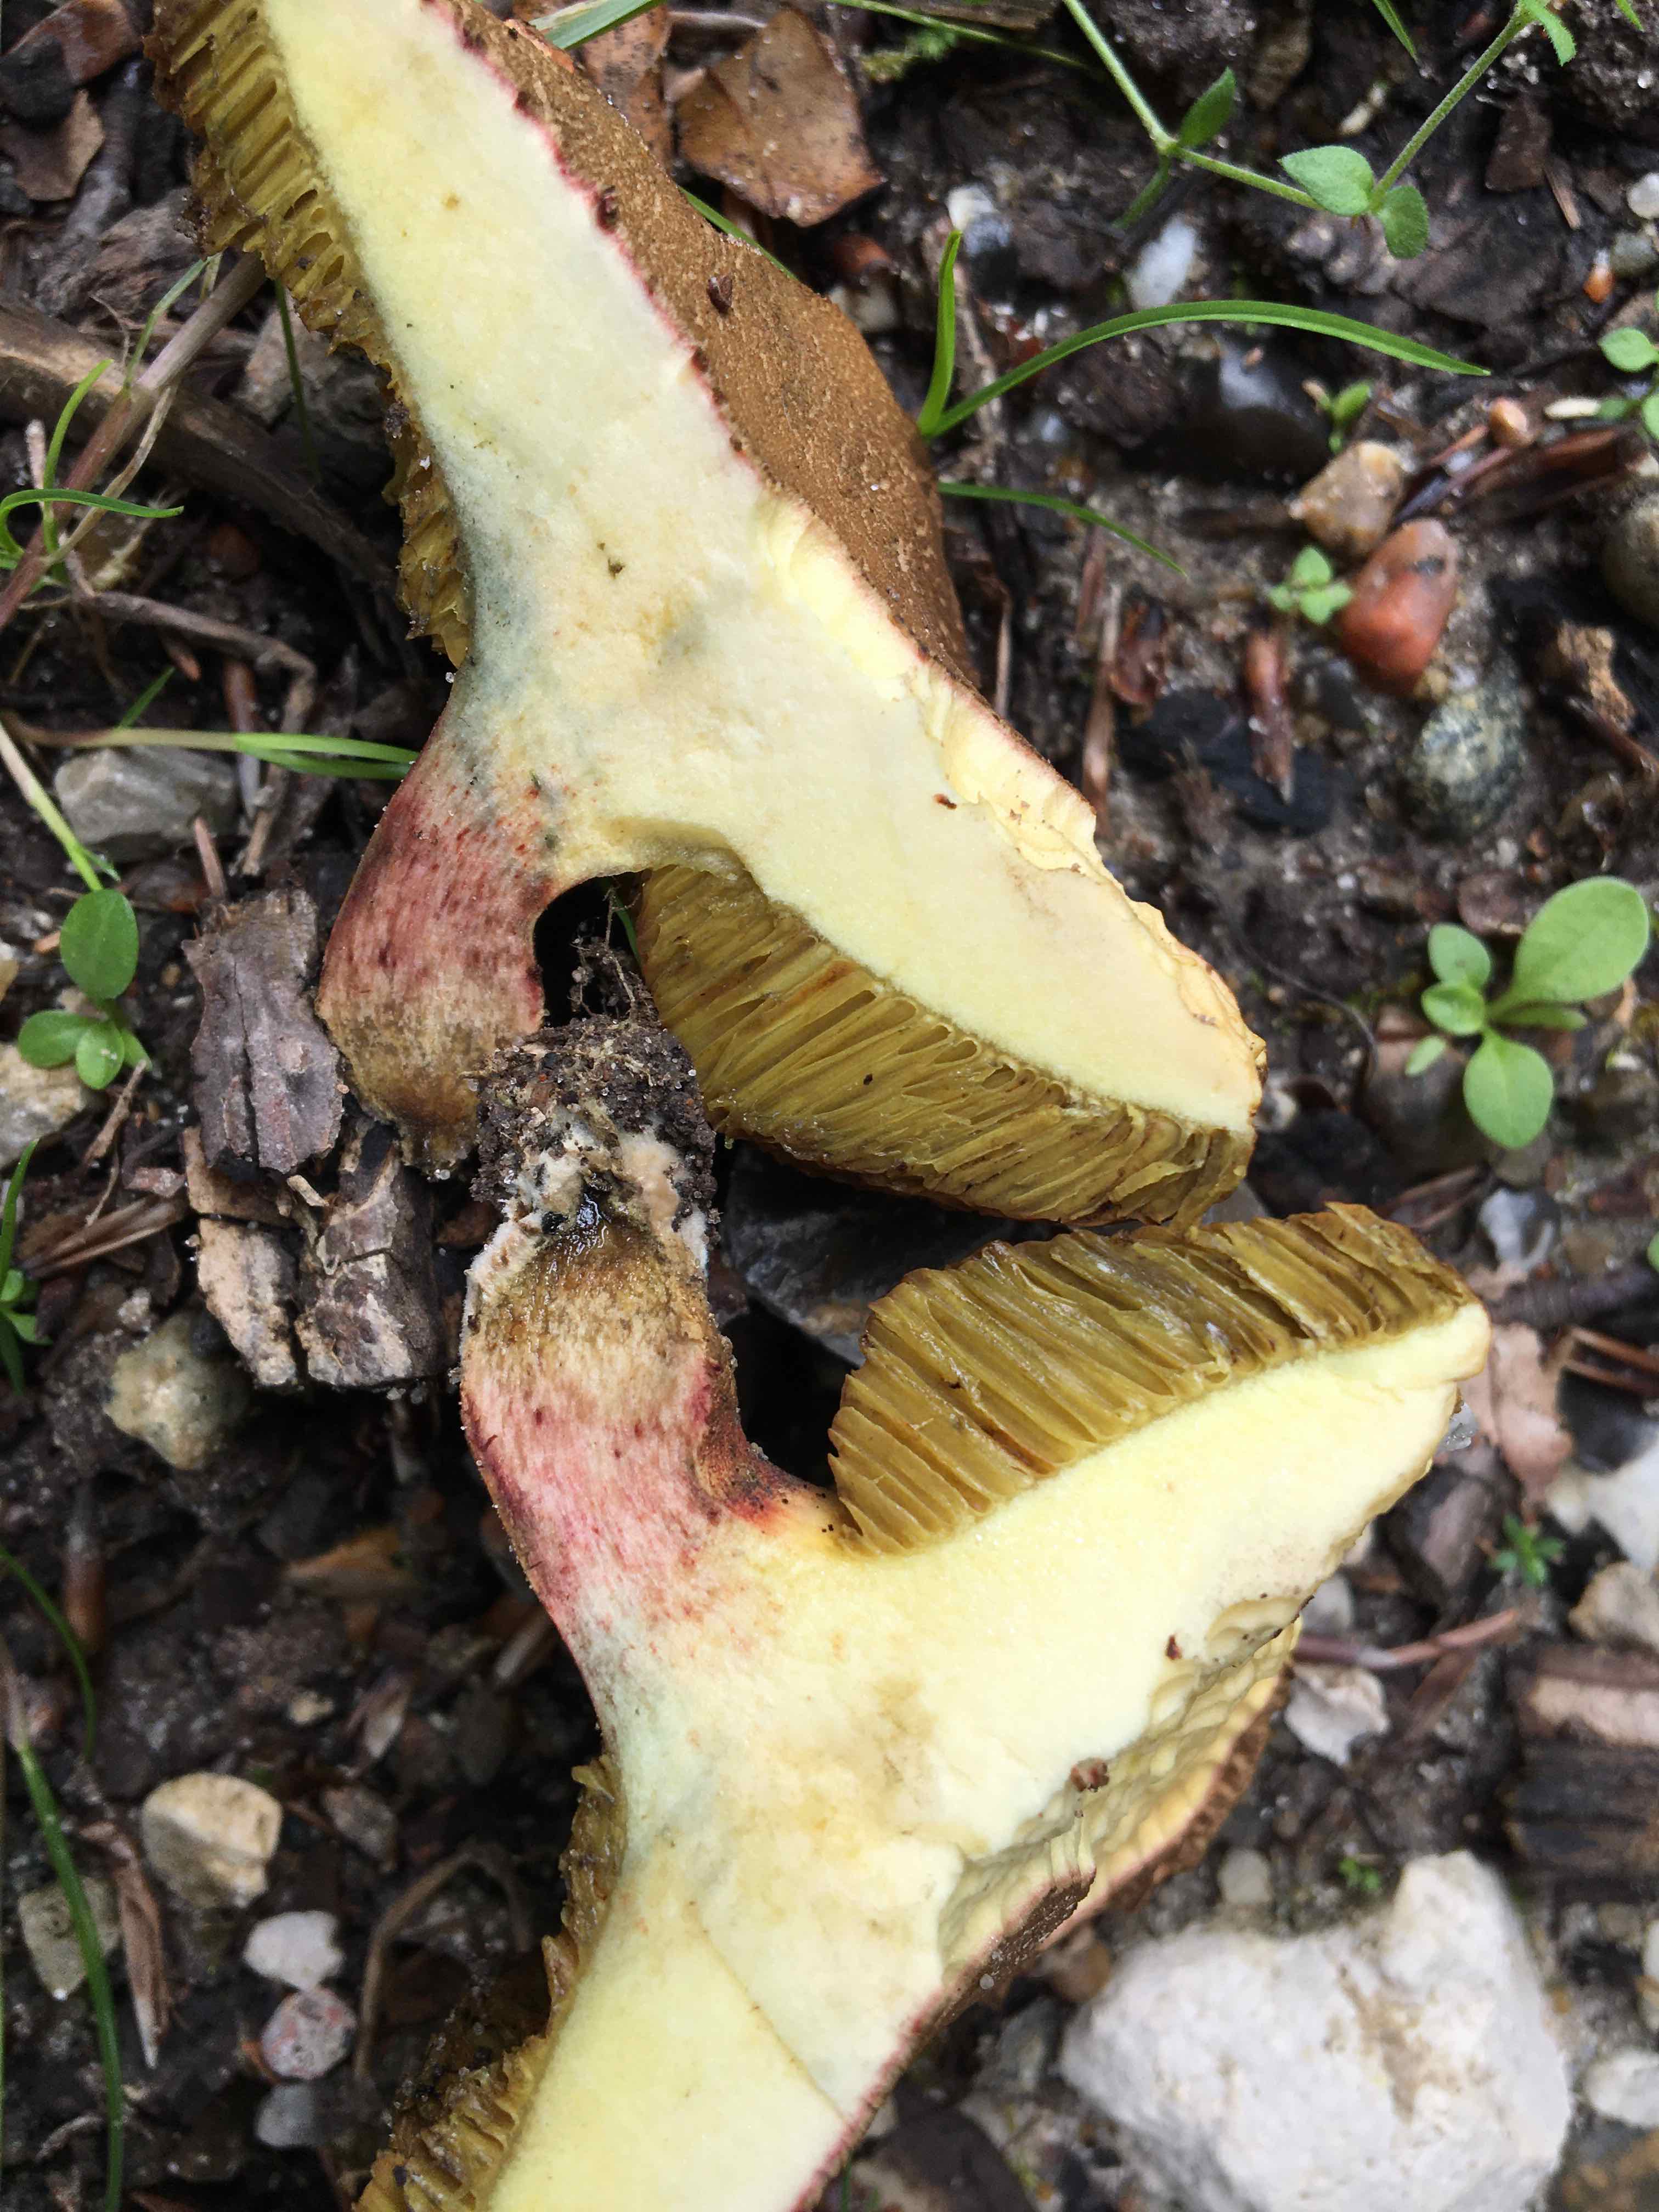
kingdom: Fungi
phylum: Basidiomycota
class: Agaricomycetes
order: Boletales
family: Boletaceae
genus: Xerocomellus
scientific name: Xerocomellus cisalpinus
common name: finsprukken rørhat
